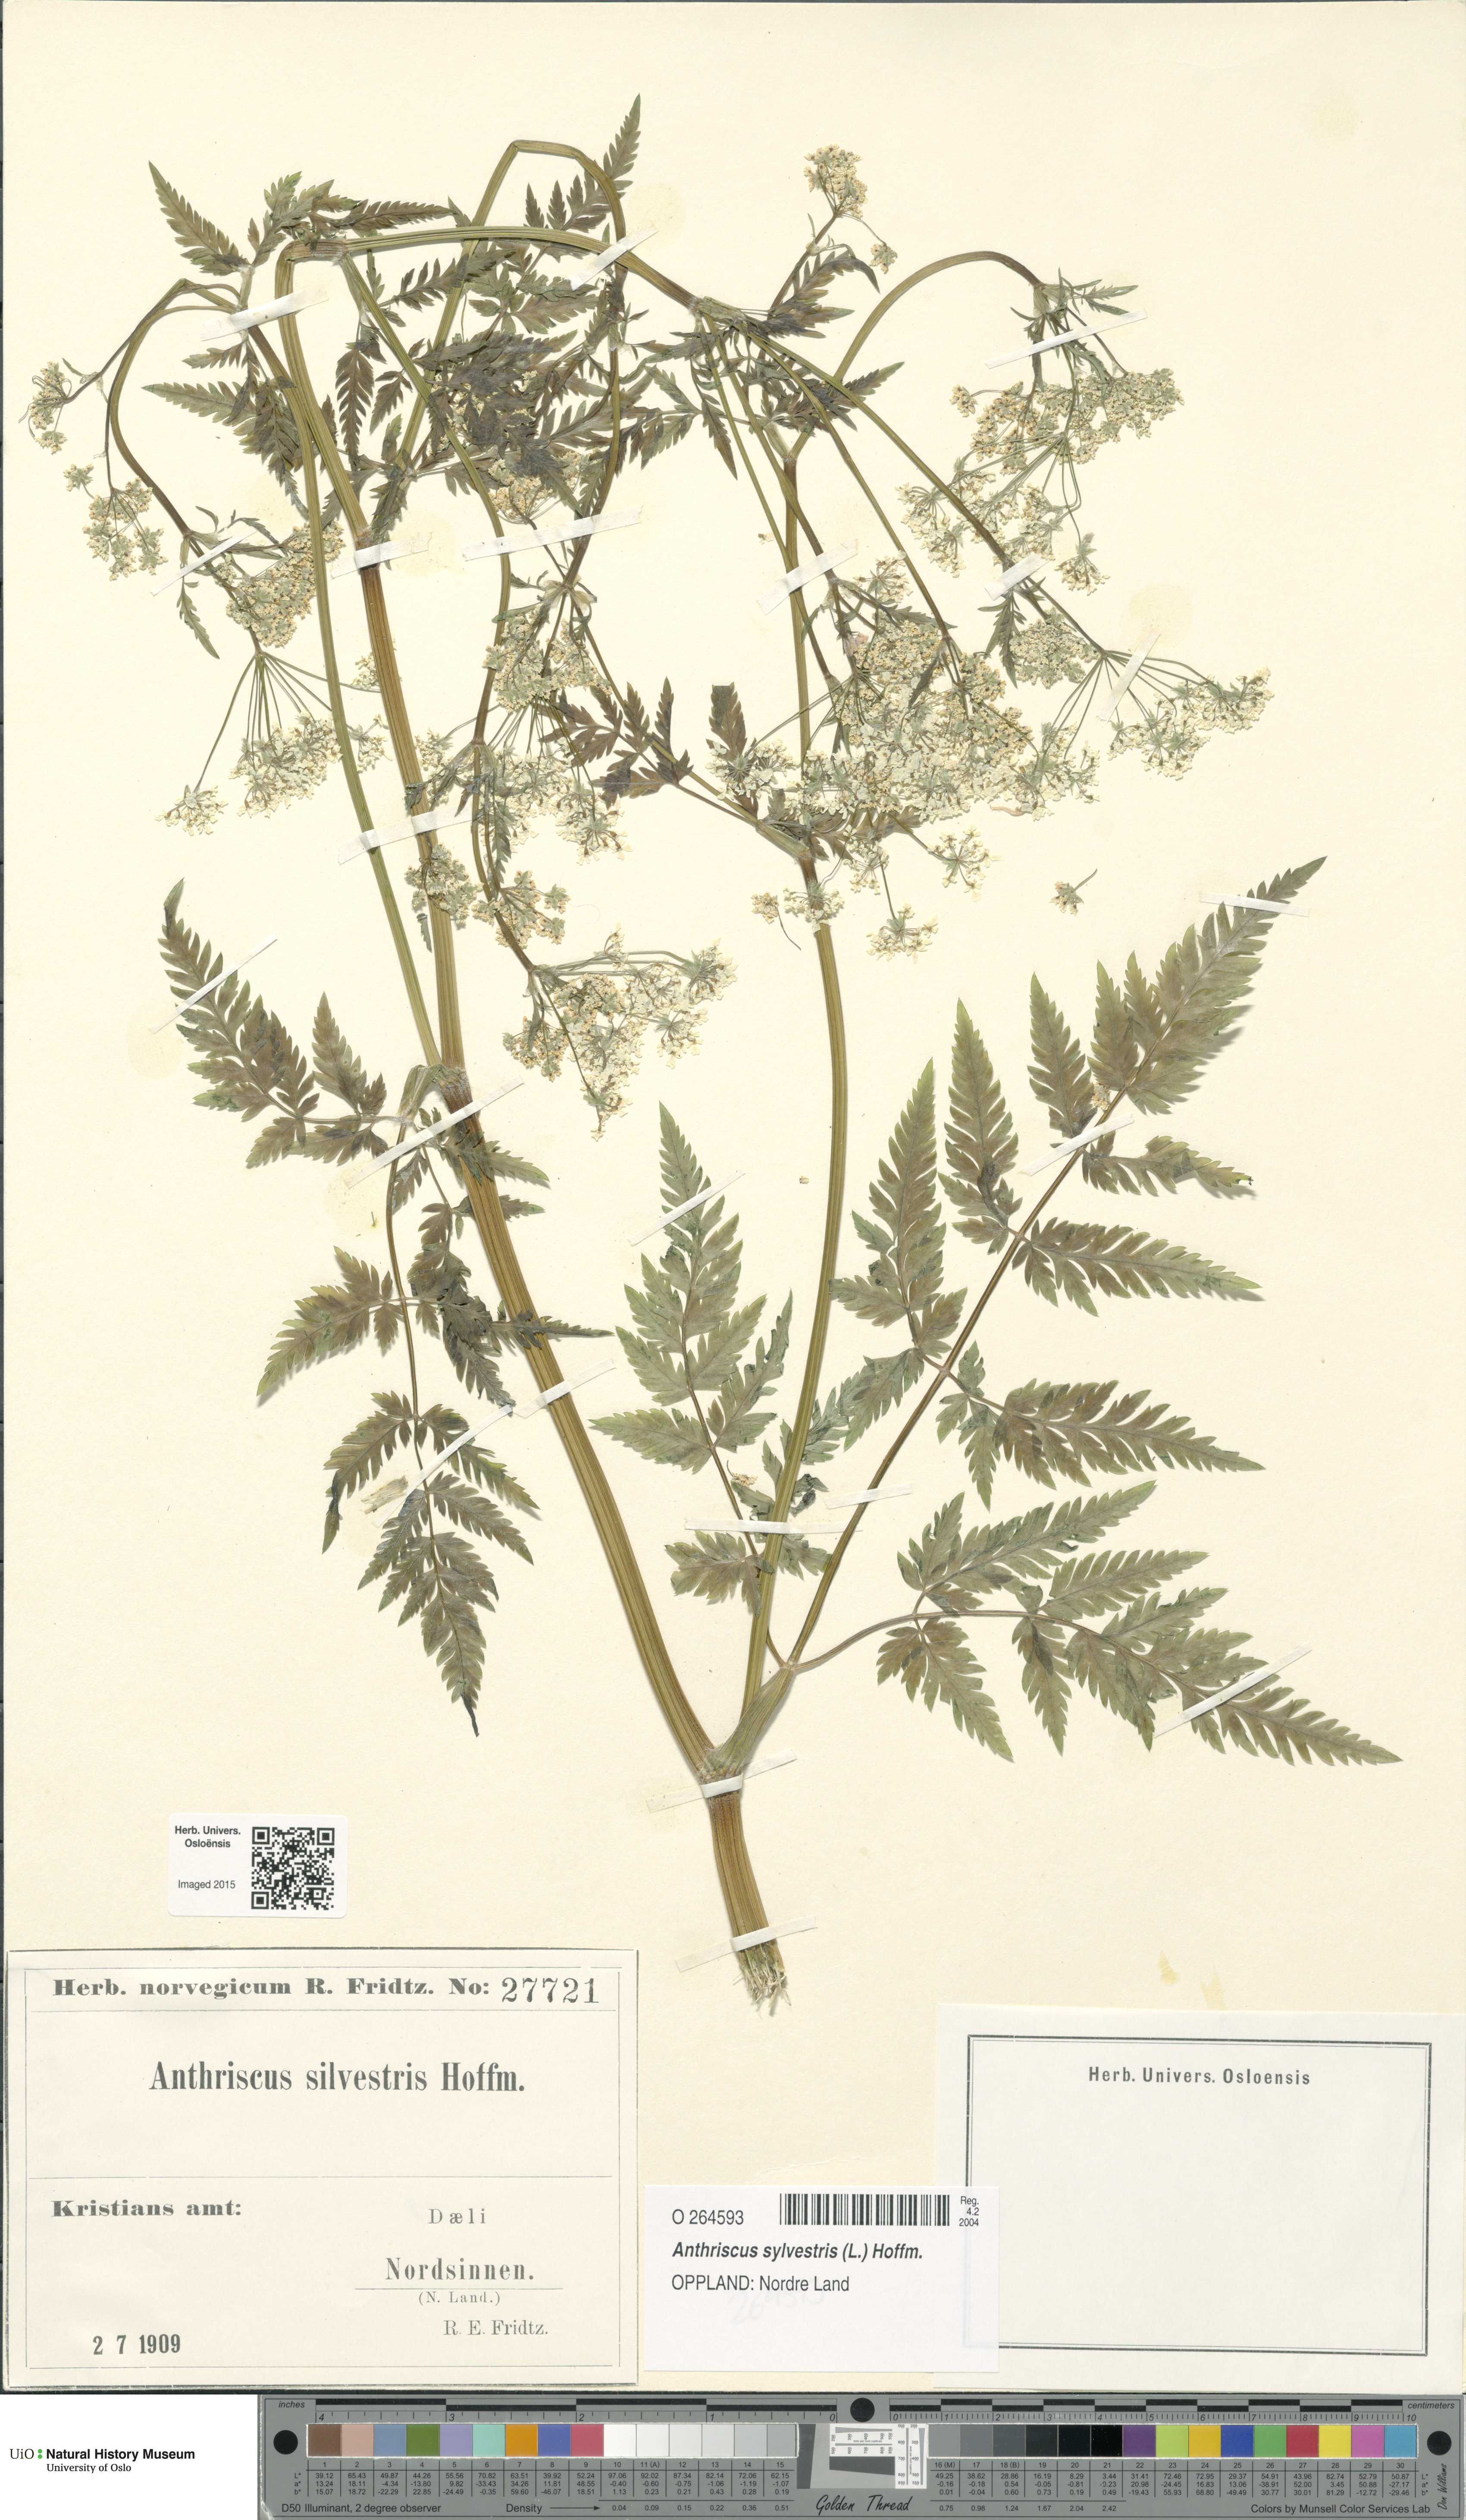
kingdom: Plantae
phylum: Tracheophyta
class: Magnoliopsida
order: Apiales
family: Apiaceae
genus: Anthriscus
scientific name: Anthriscus sylvestris
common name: Cow parsley
